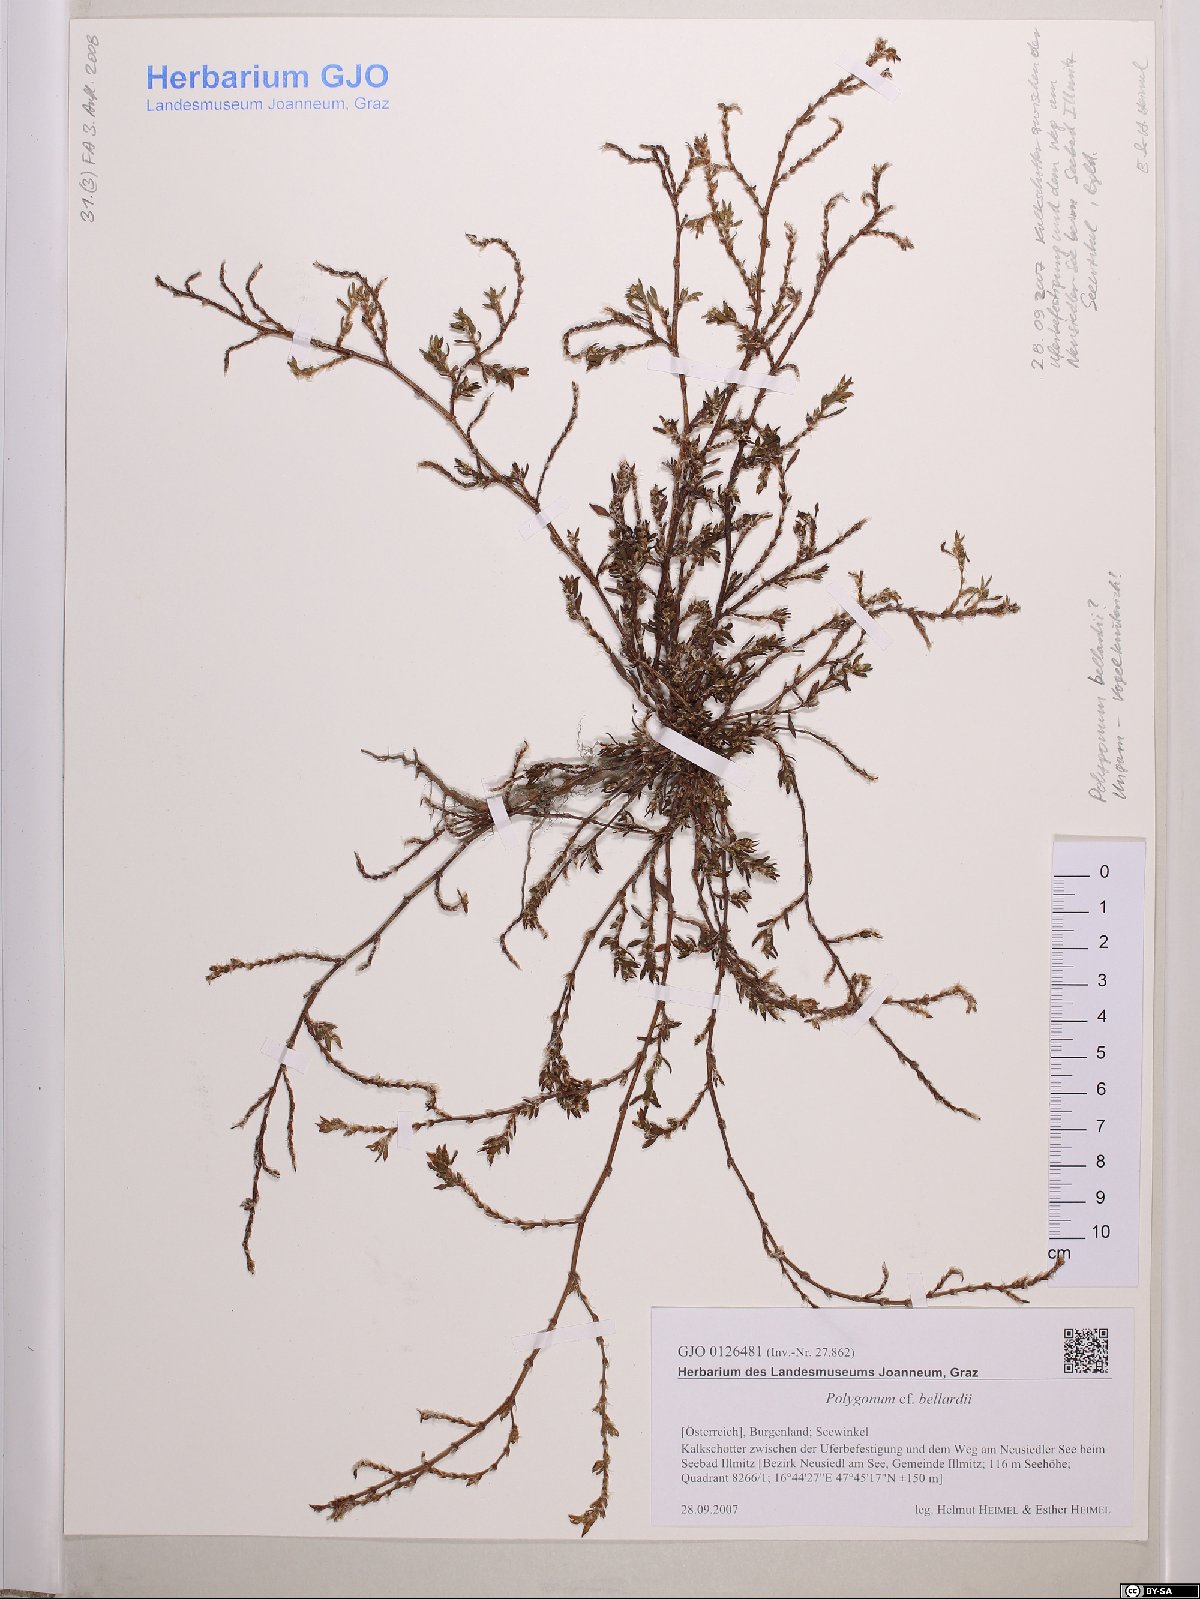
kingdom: Plantae
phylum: Tracheophyta
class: Magnoliopsida
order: Caryophyllales
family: Polygonaceae
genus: Polygonum
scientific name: Polygonum bellardii
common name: Narrowleaf knotweed
